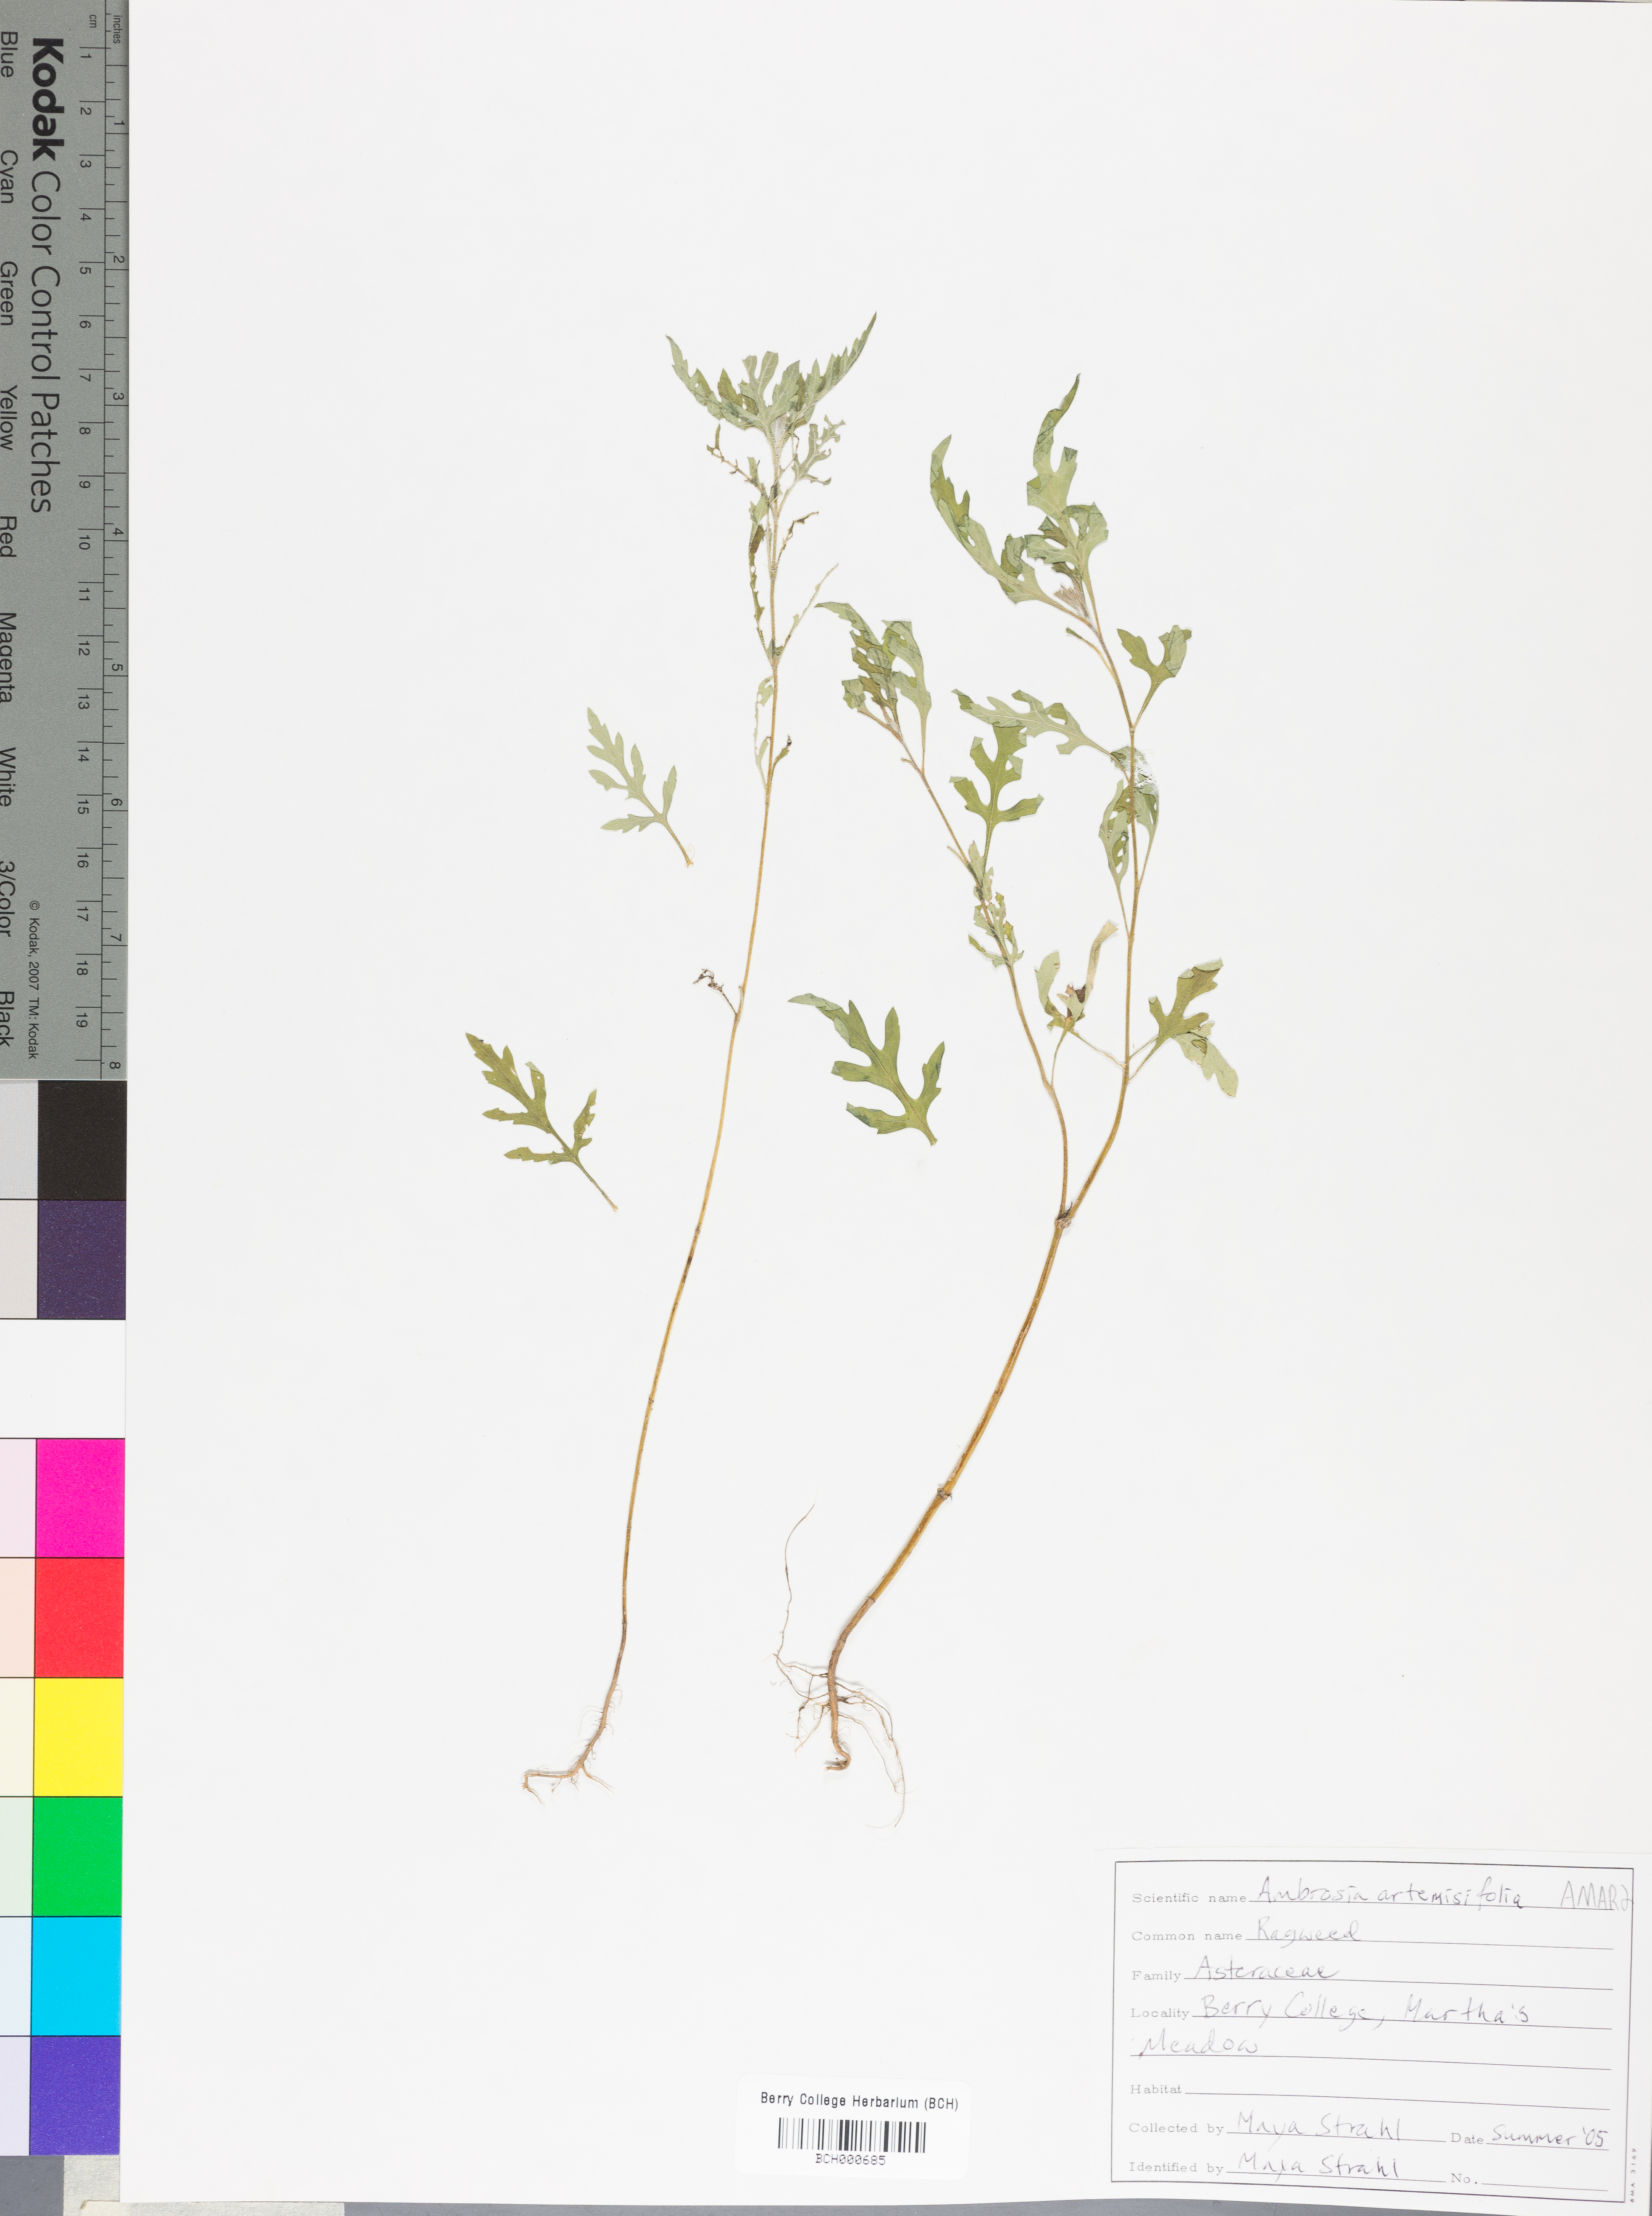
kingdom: Plantae
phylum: Tracheophyta
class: Magnoliopsida
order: Asterales
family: Asteraceae
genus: Ambrosia
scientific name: Ambrosia artemisiifolia
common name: Annual ragweed
